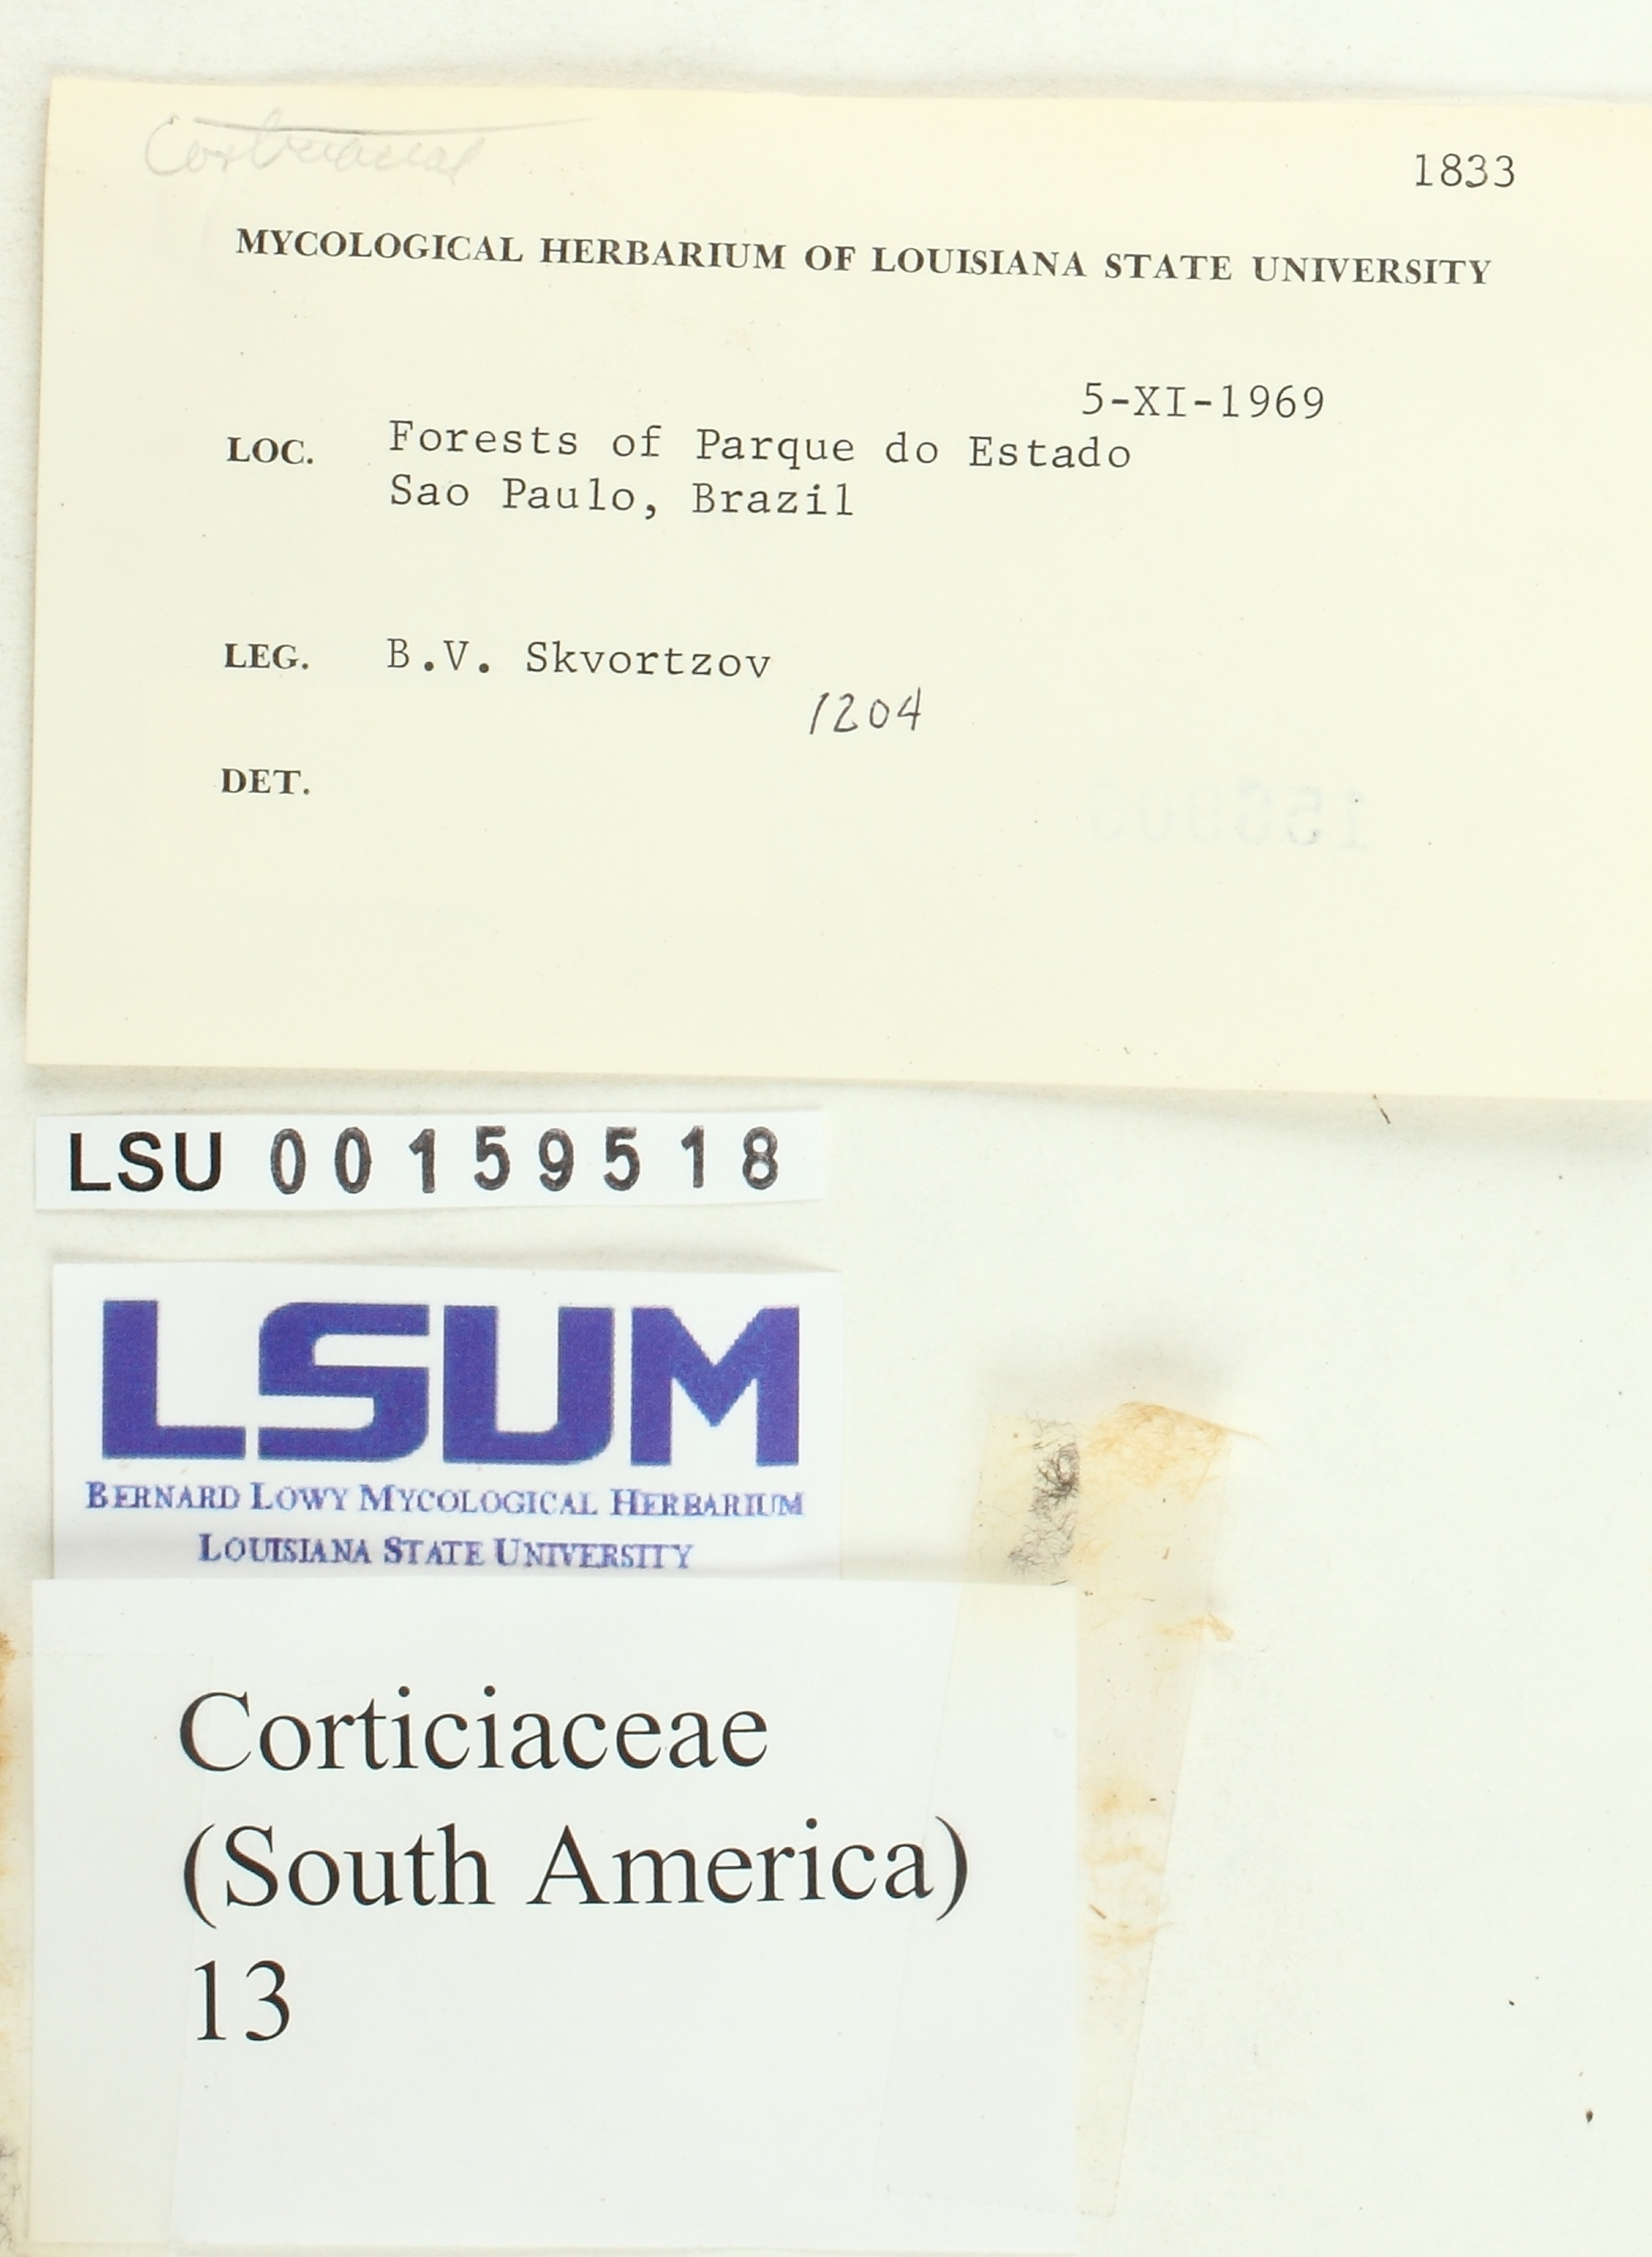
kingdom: Fungi
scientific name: Fungi
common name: Fungi
